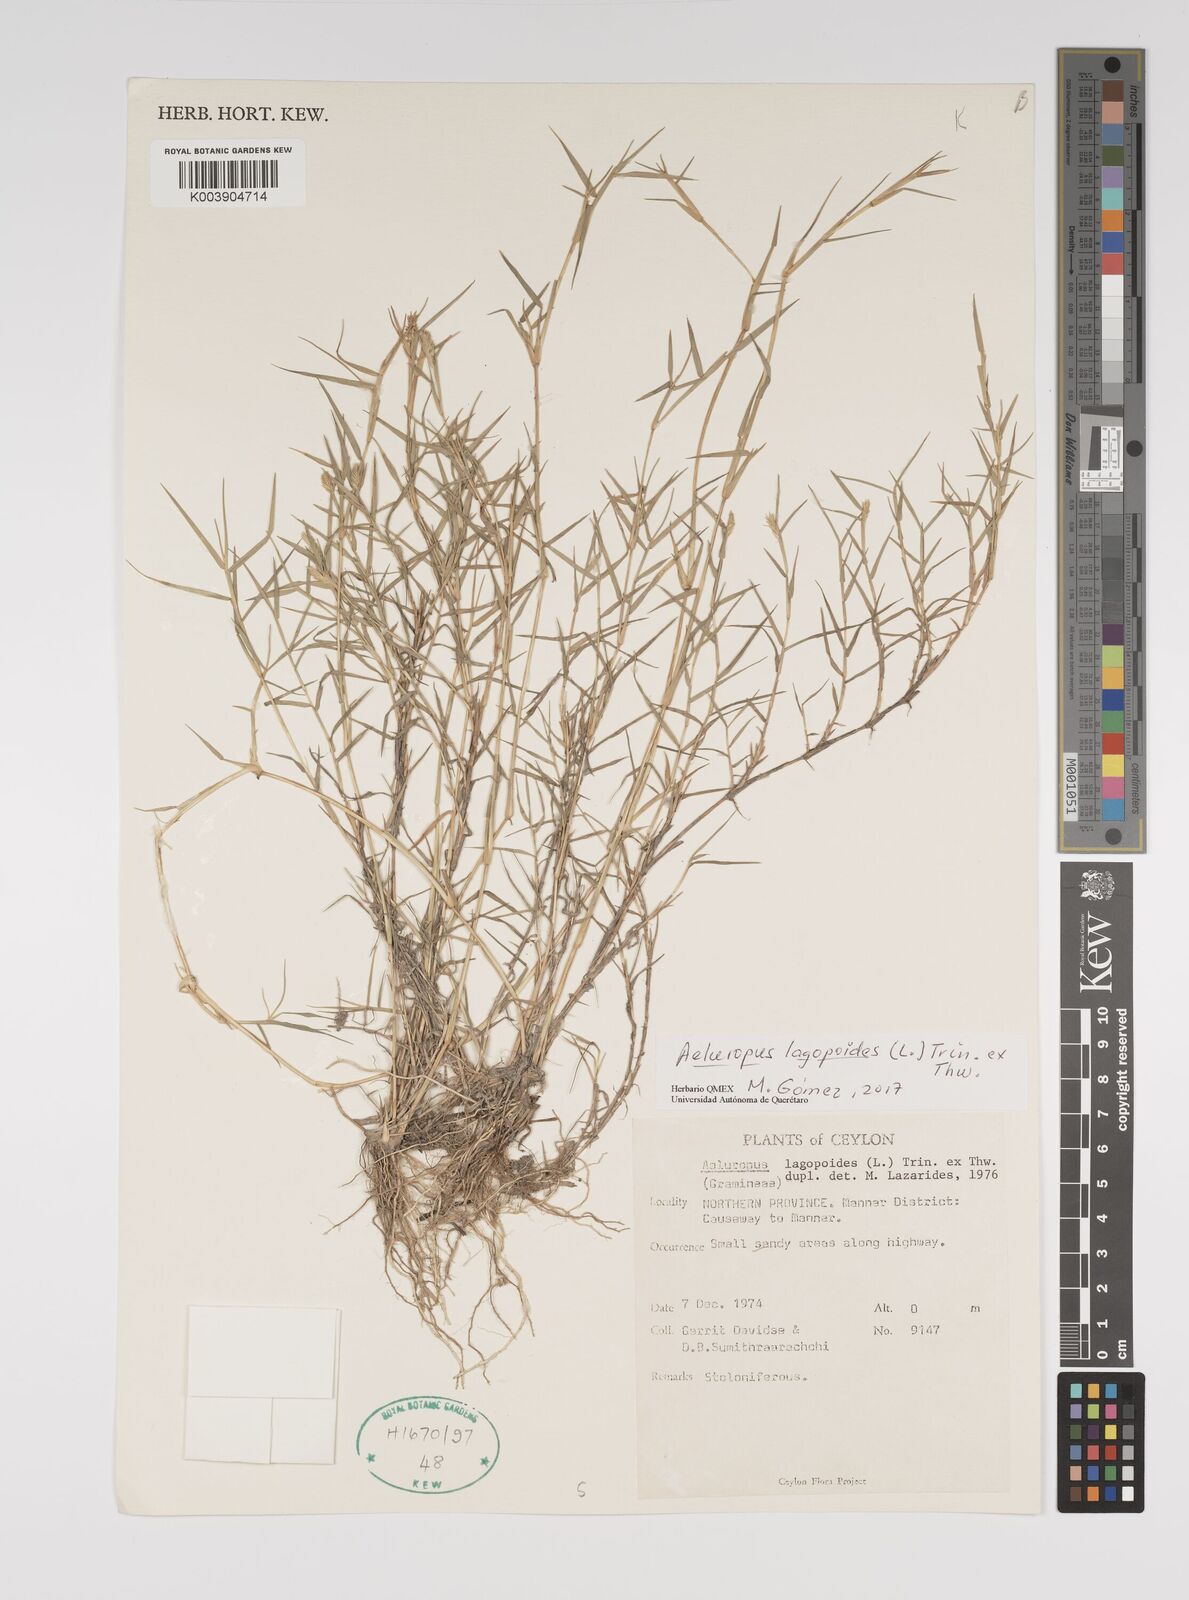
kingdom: Plantae
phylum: Tracheophyta
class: Liliopsida
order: Poales
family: Poaceae
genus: Aeluropus
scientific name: Aeluropus lagopoides
